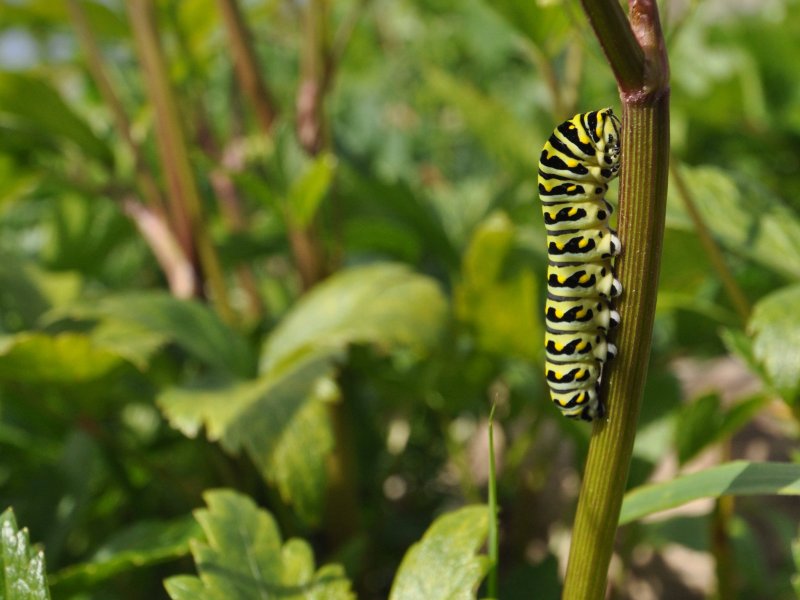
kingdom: Animalia
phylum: Arthropoda
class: Insecta
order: Lepidoptera
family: Papilionidae
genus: Papilio
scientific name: Papilio brevicauda
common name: Short-tailed Swallowtail
